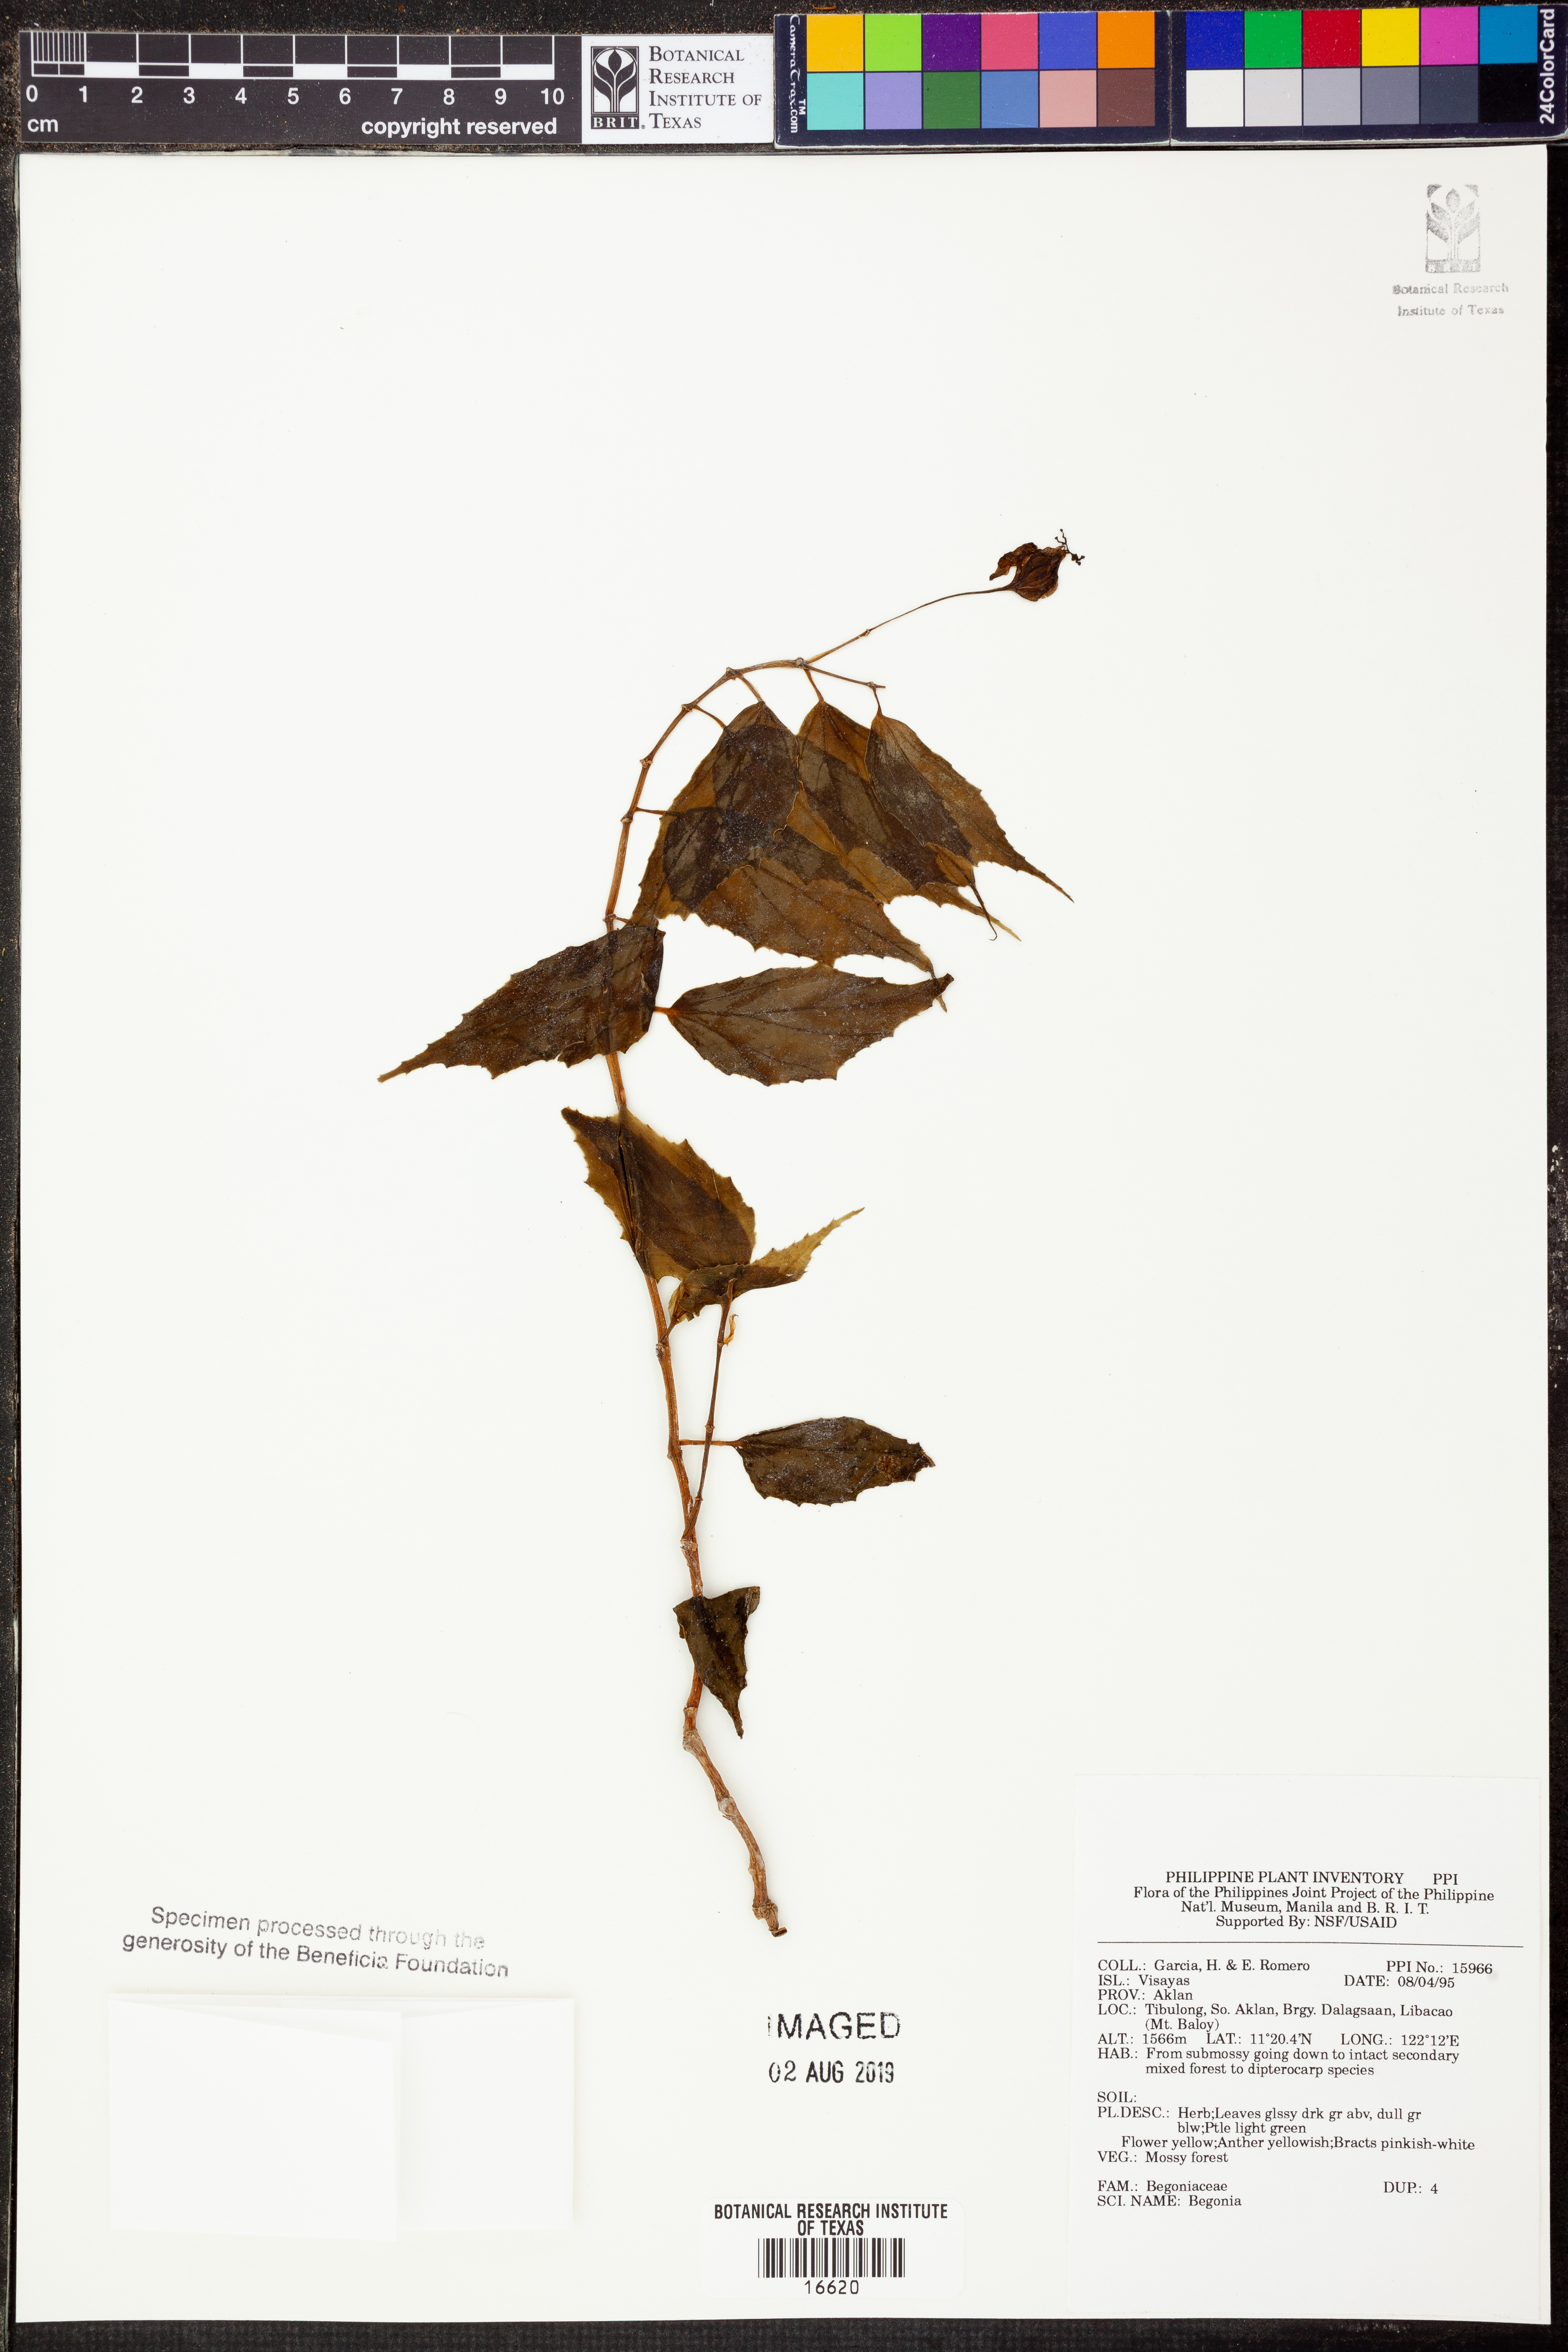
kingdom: Plantae
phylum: Tracheophyta
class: Magnoliopsida
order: Cucurbitales
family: Begoniaceae
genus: Begonia
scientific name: Begonia
